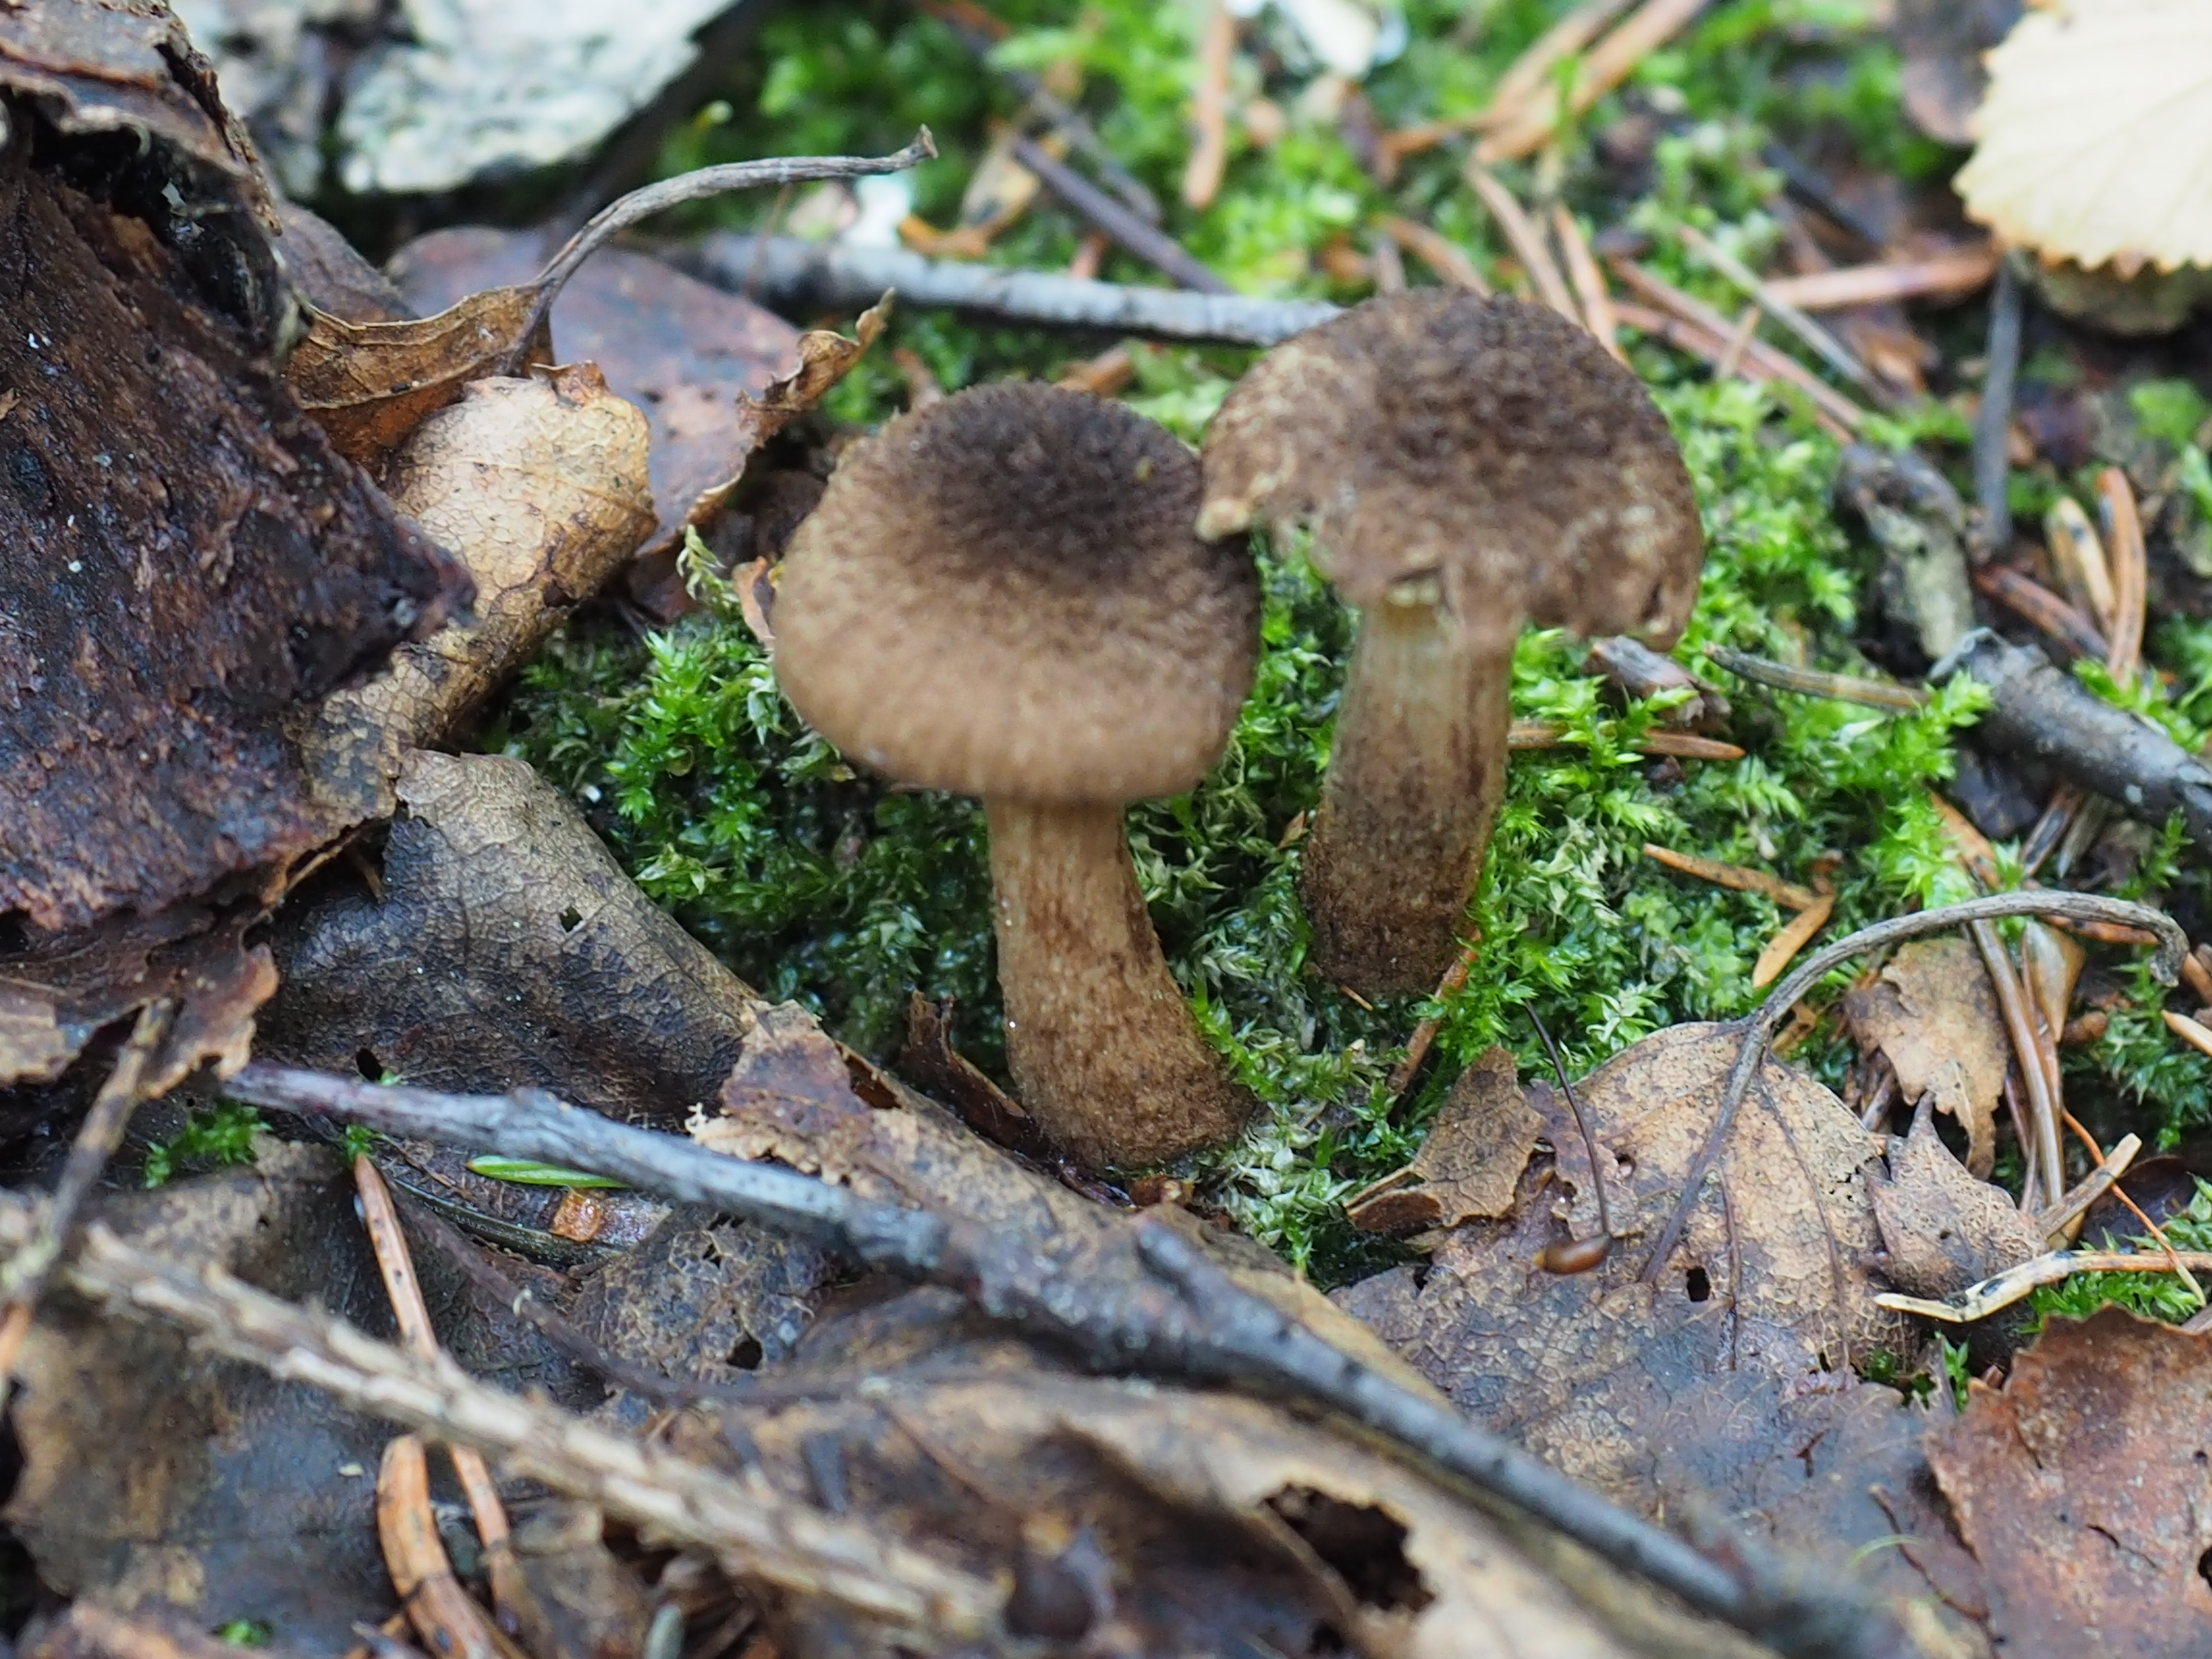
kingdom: Fungi
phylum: Basidiomycota
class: Agaricomycetes
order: Agaricales
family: Inocybaceae
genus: Inocybe
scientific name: Inocybe relicina
